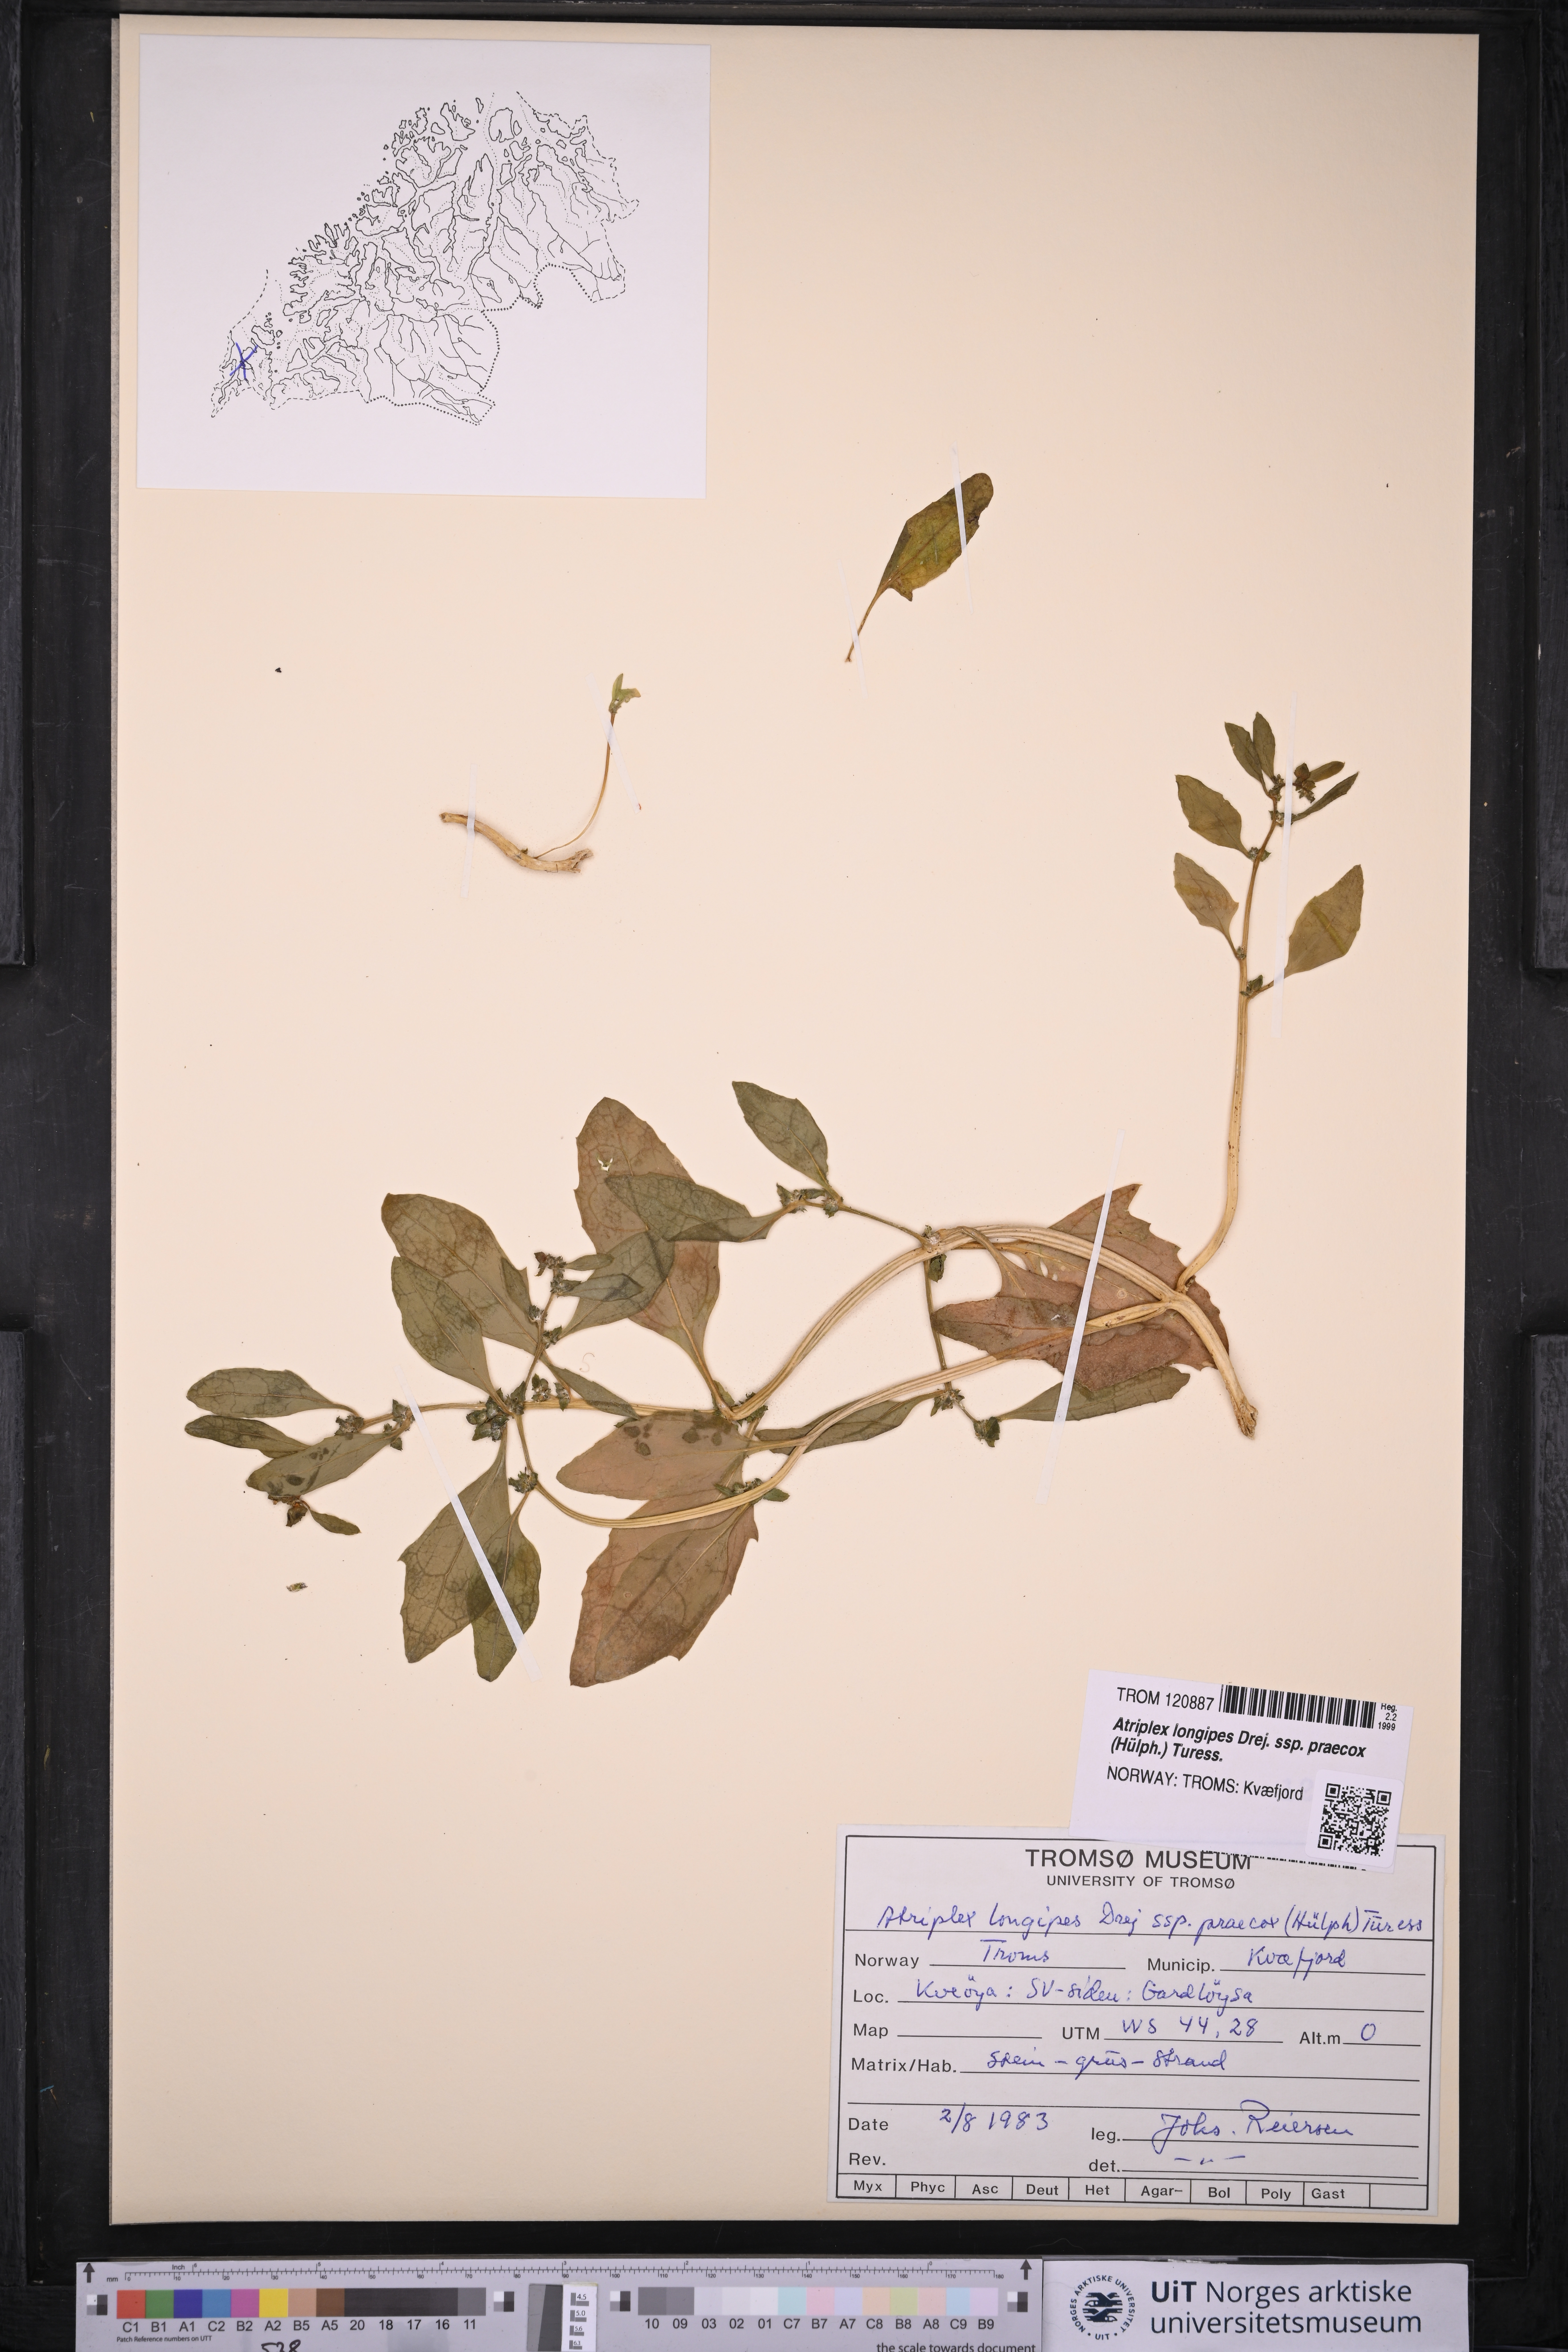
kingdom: Plantae
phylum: Tracheophyta
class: Magnoliopsida
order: Caryophyllales
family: Amaranthaceae
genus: Atriplex
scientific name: Atriplex praecox
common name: Early orache
